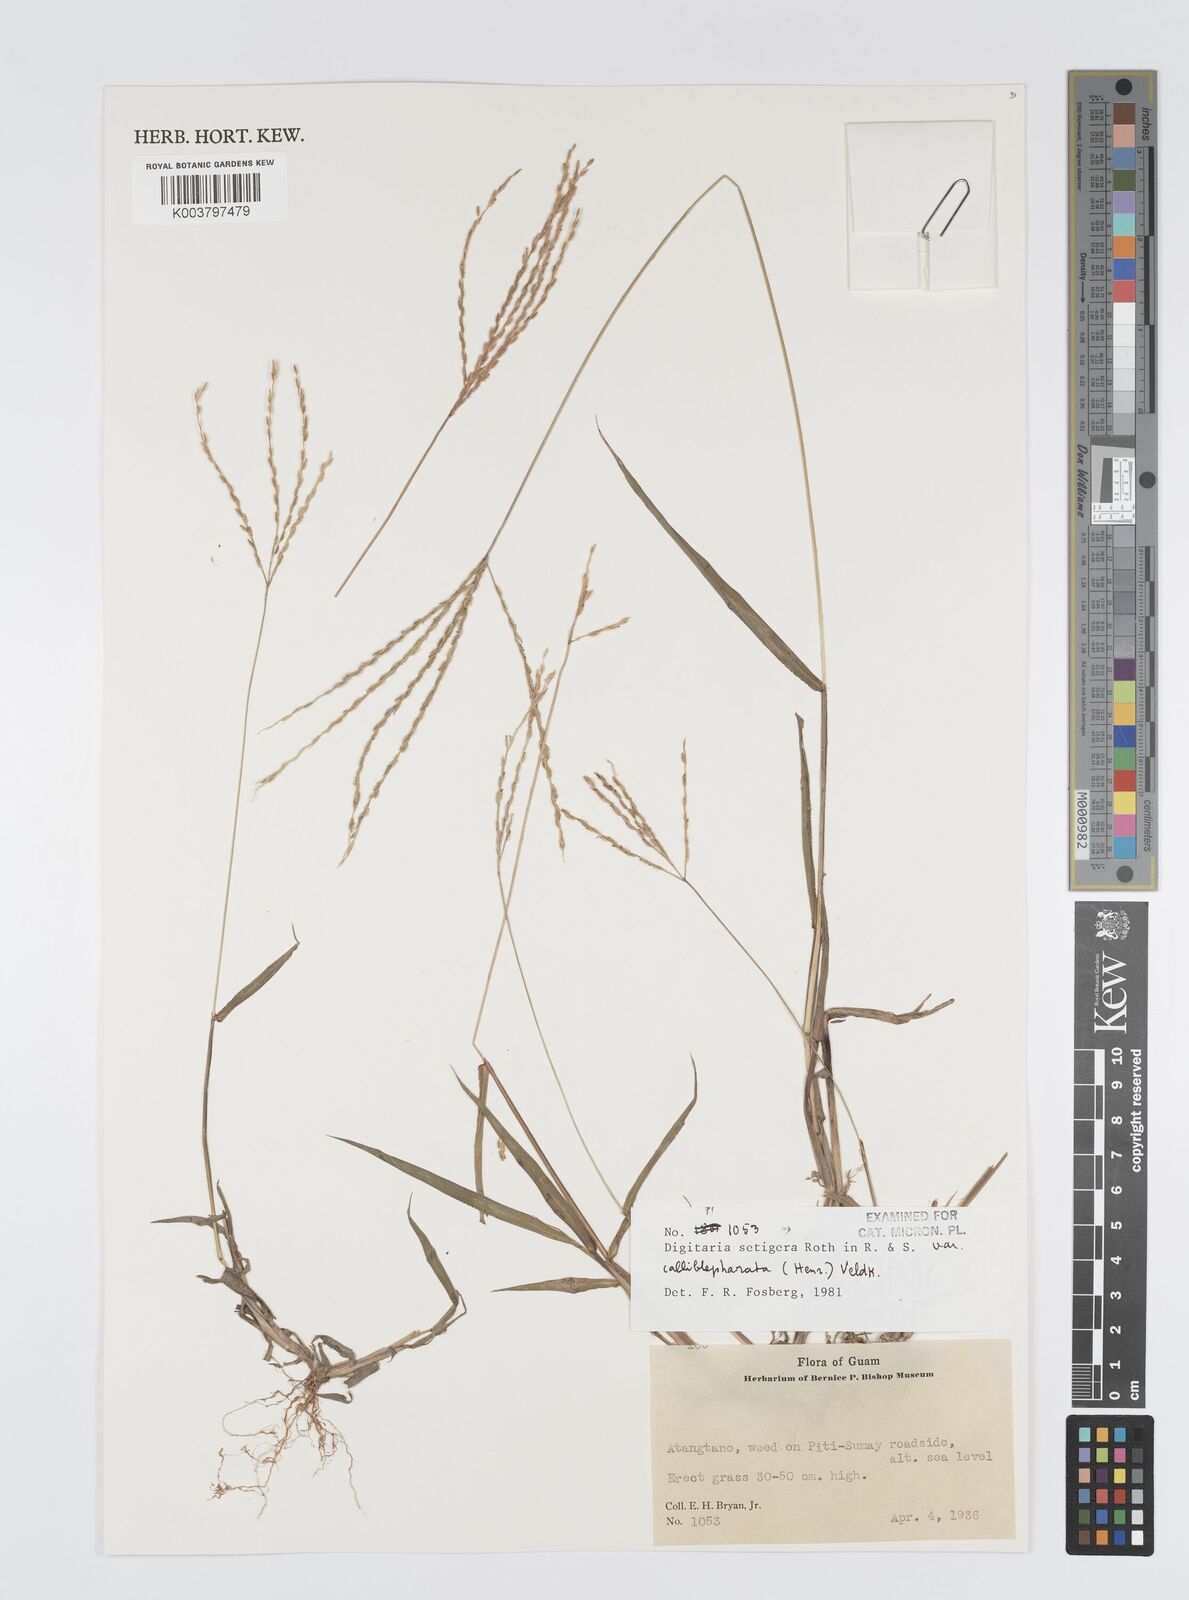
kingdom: Plantae
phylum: Tracheophyta
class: Liliopsida
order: Poales
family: Poaceae
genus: Digitaria
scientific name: Digitaria setigera
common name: East indian crabgrass
